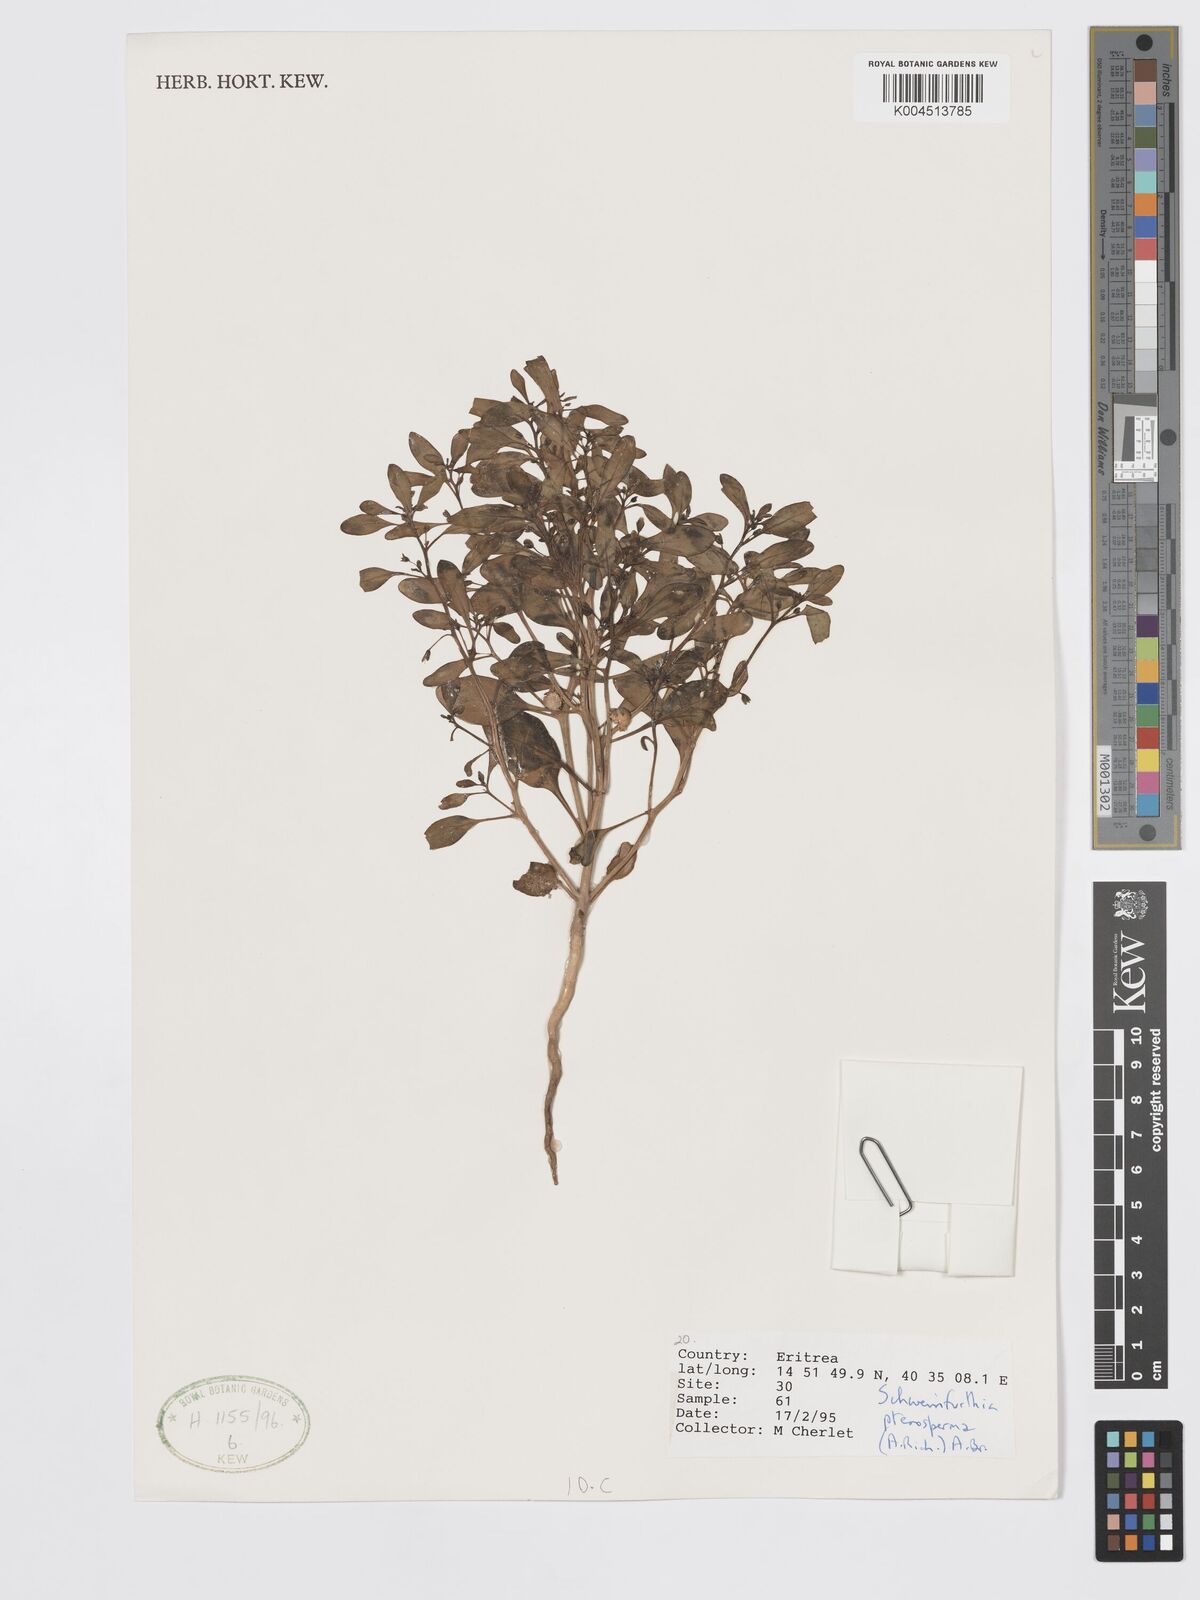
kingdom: Plantae
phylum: Tracheophyta
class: Magnoliopsida
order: Lamiales
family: Plantaginaceae
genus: Schweinfurthia
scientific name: Schweinfurthia pterosperma
